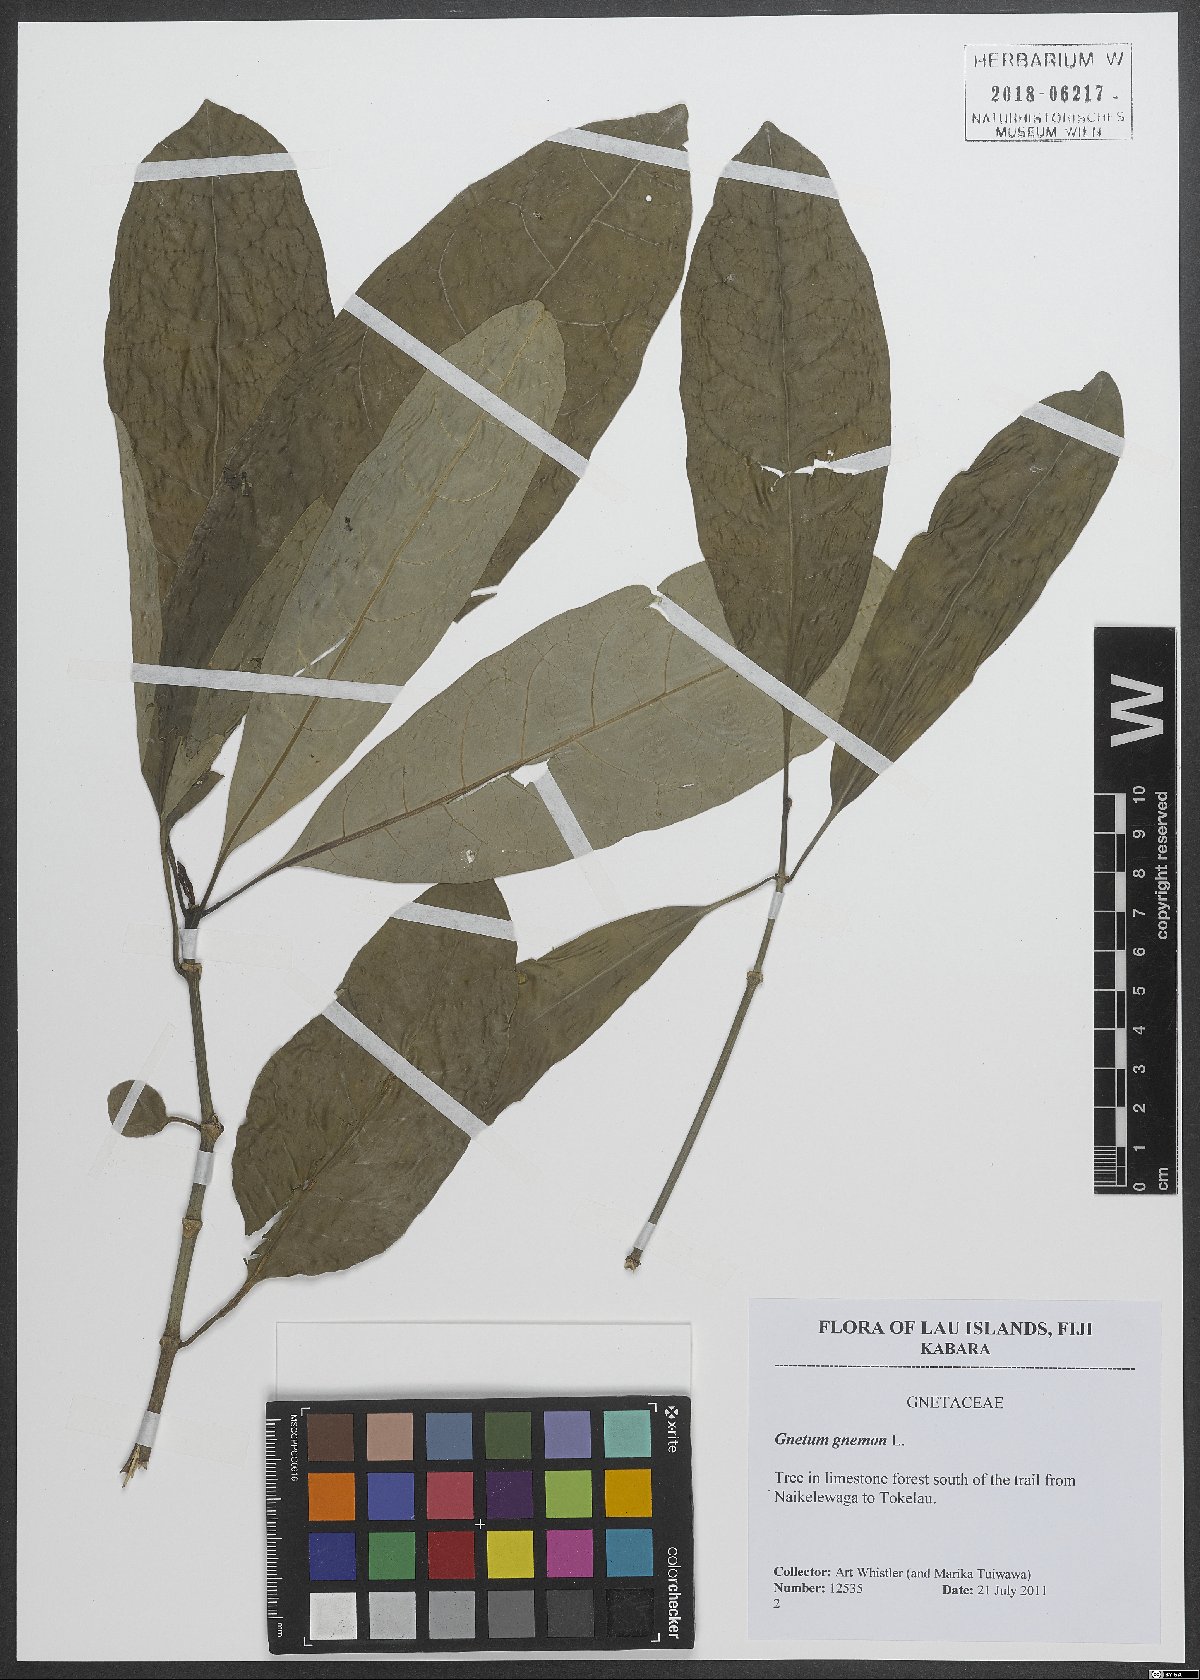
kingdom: Plantae
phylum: Tracheophyta
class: Gnetopsida
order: Gnetales
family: Gnetaceae
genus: Gnetum
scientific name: Gnetum gnemon
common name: Spanish joint-fir
